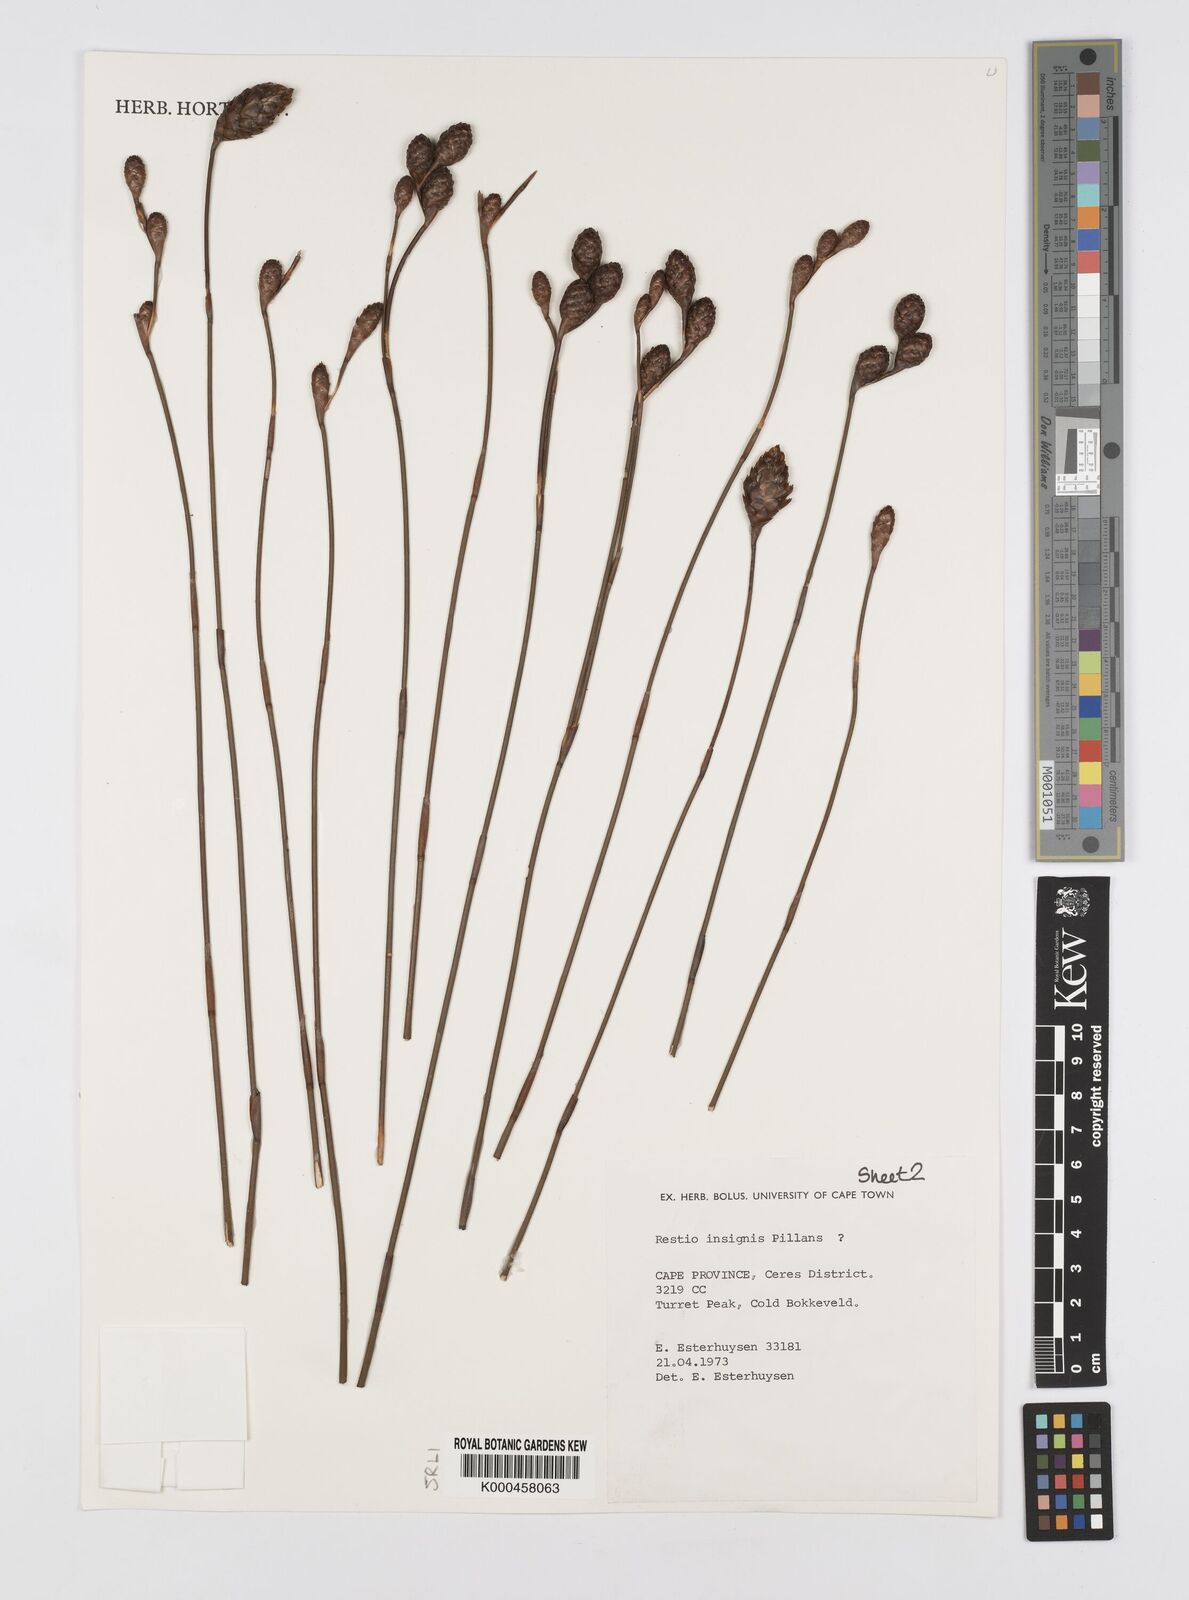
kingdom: Plantae
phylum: Tracheophyta
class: Liliopsida
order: Poales
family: Restionaceae
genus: Restio
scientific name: Restio insignis
